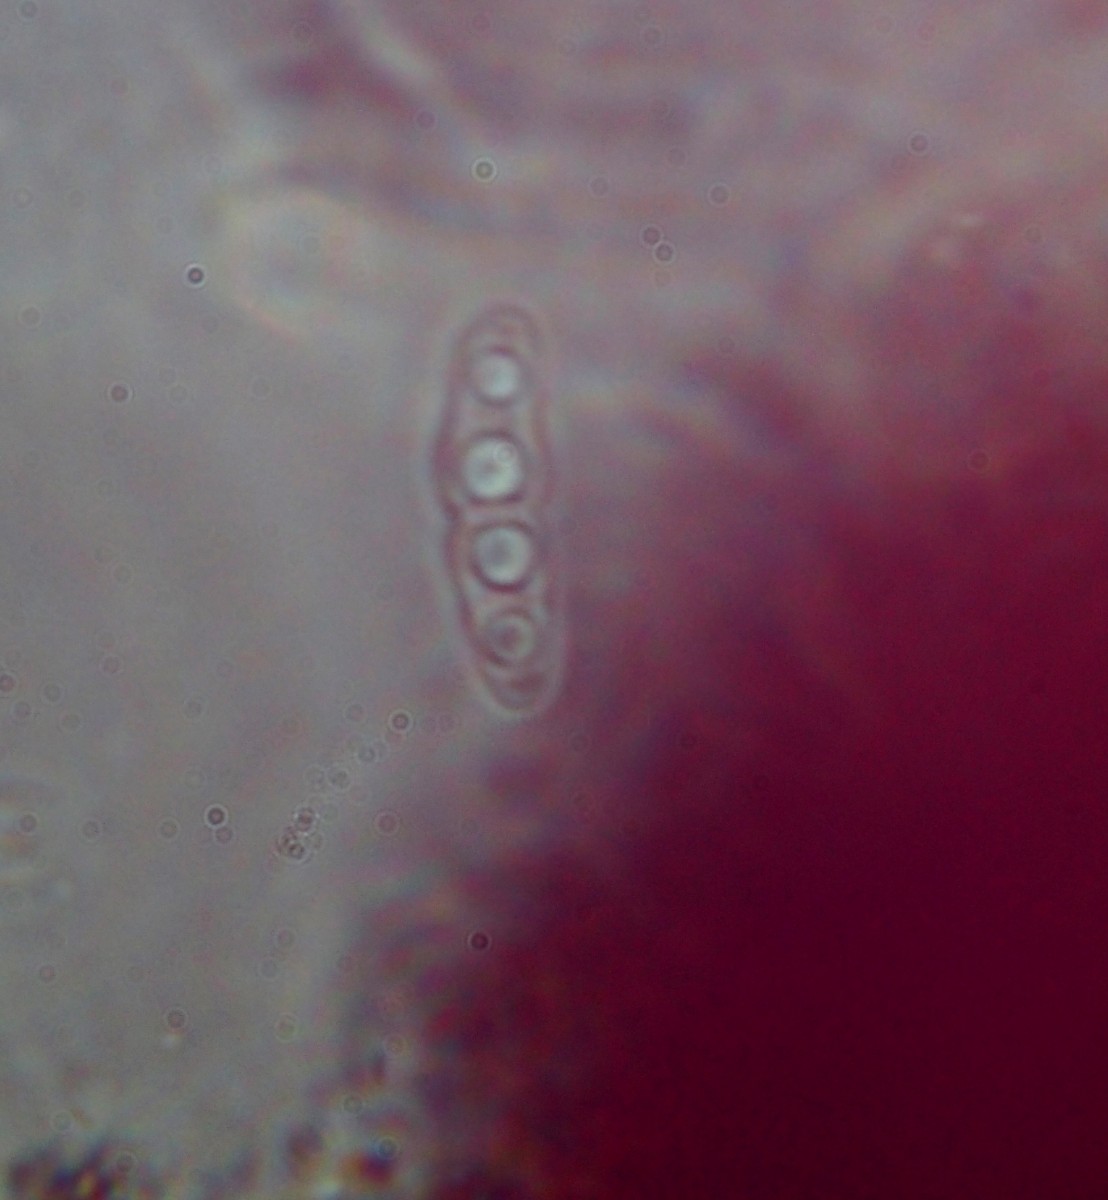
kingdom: Fungi
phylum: Ascomycota
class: Dothideomycetes
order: Pleosporales
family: Lophiostomataceae
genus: Neovaginatispora
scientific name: Neovaginatispora fuckelii
